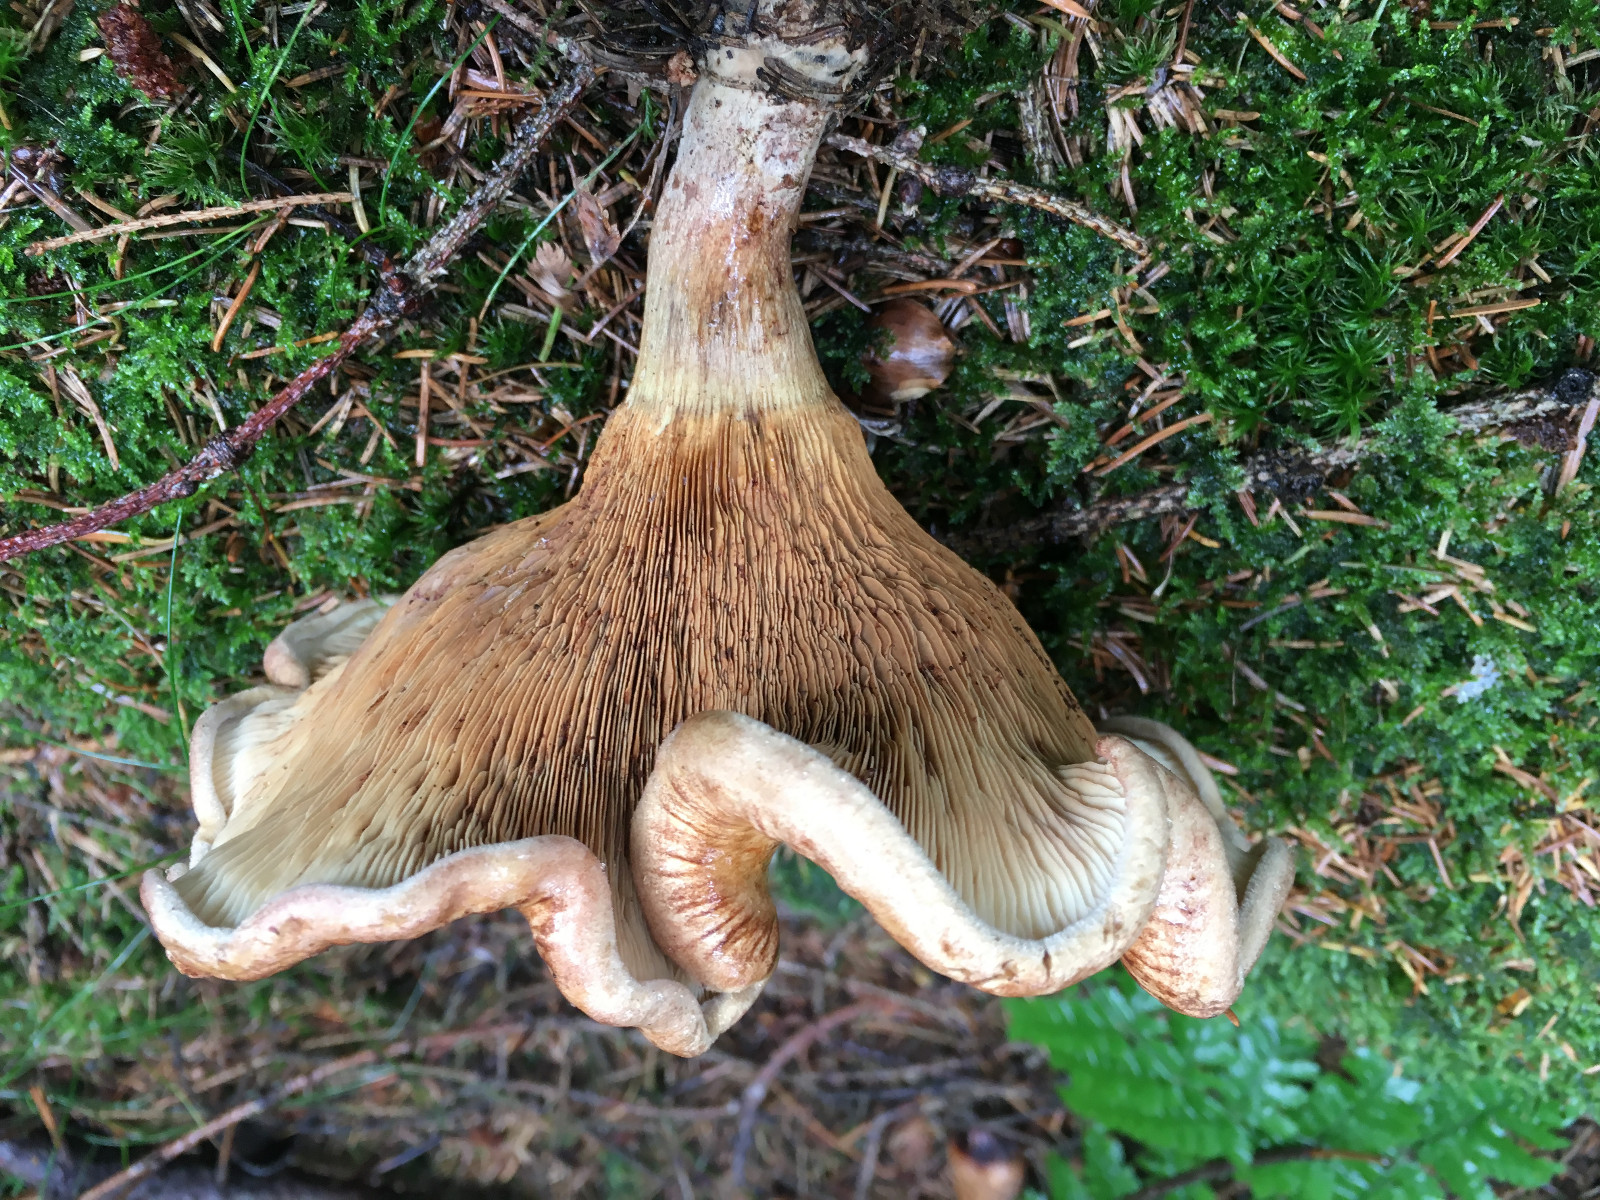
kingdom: Fungi
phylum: Basidiomycota
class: Agaricomycetes
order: Boletales
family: Paxillaceae
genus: Paxillus
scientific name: Paxillus involutus
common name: almindelig netbladhat
